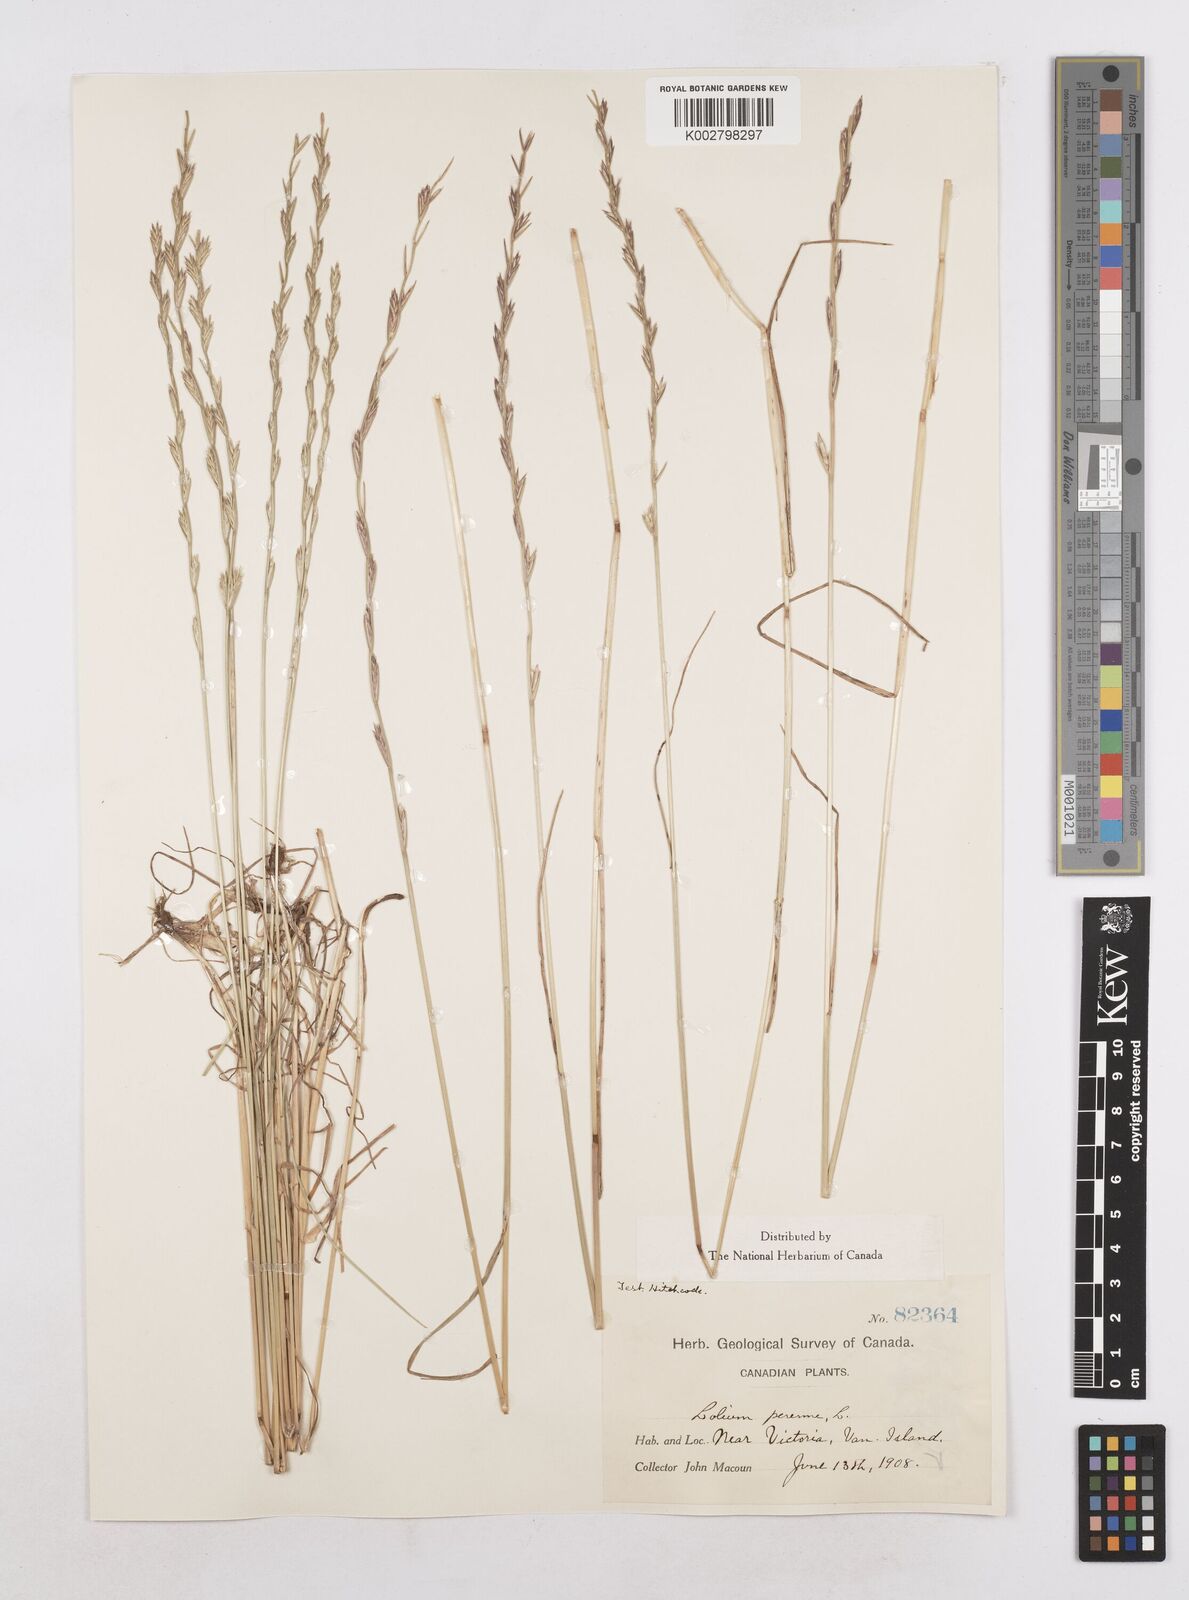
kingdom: Plantae
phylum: Tracheophyta
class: Liliopsida
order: Poales
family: Poaceae
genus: Lolium
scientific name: Lolium perenne
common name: Perennial ryegrass
